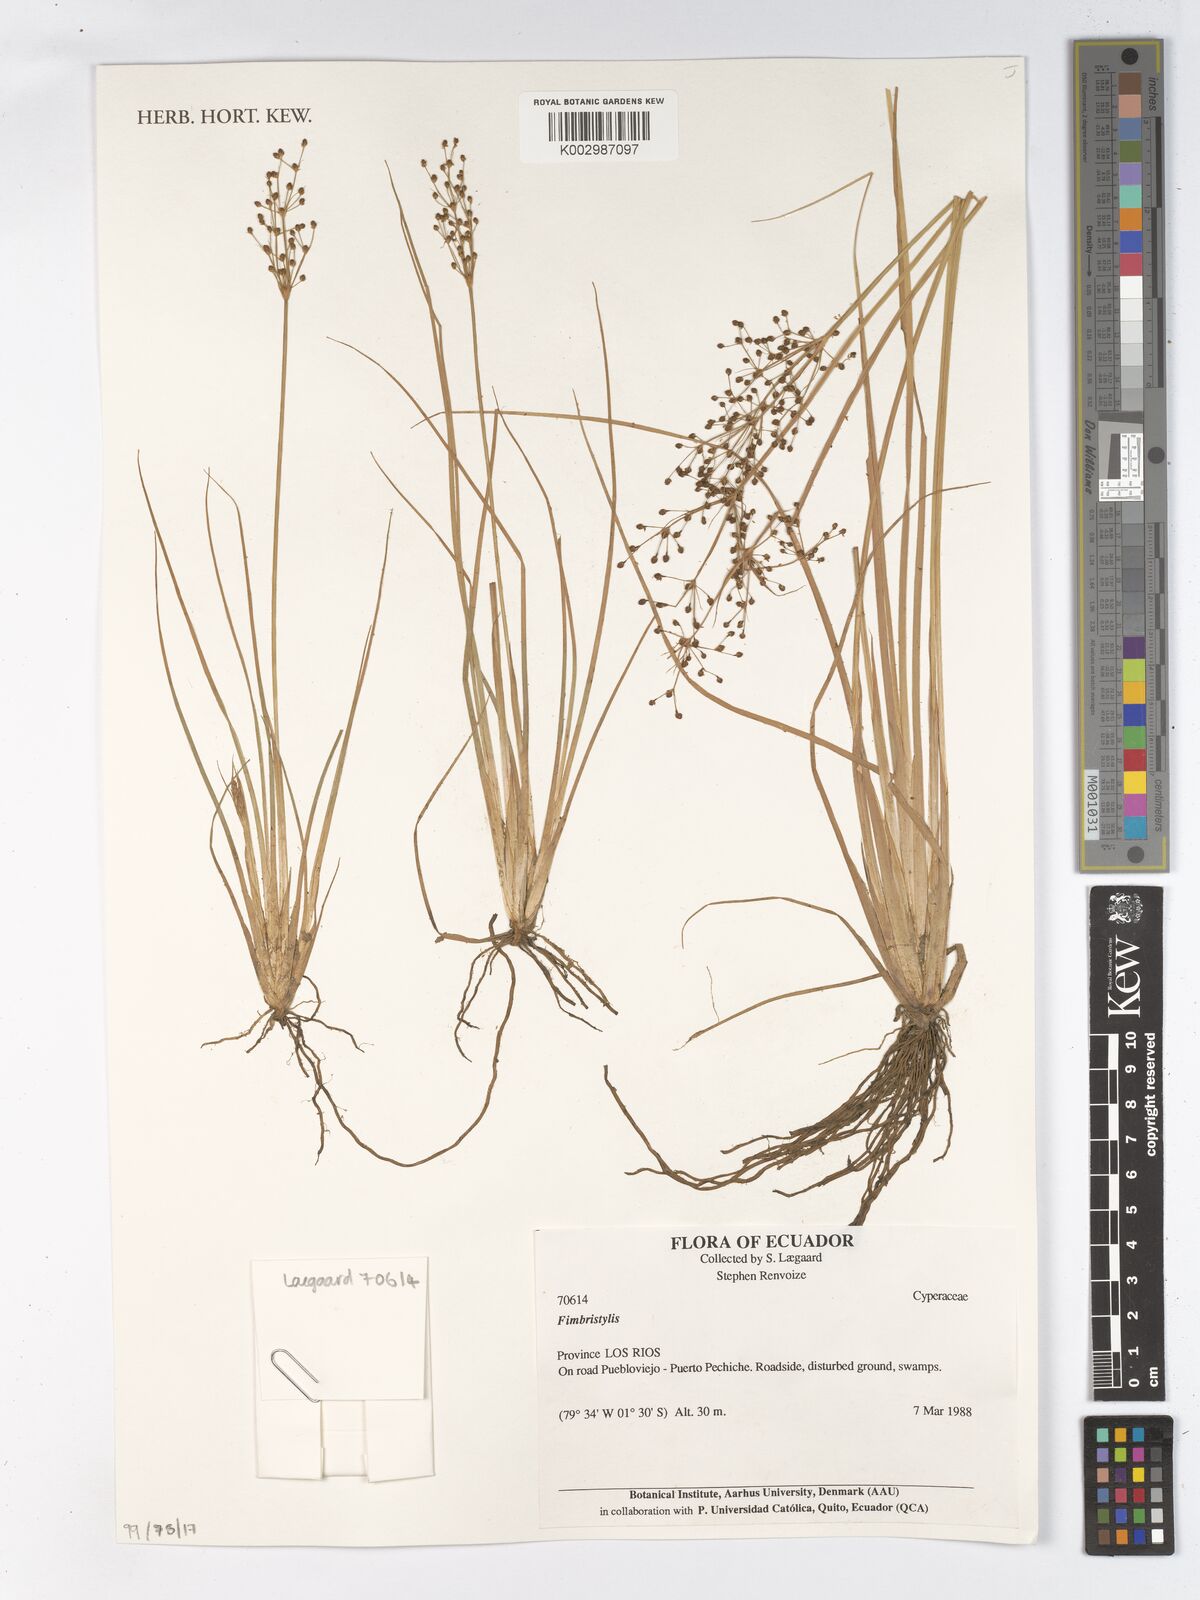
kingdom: Plantae
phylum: Tracheophyta
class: Liliopsida
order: Poales
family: Cyperaceae
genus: Fimbristylis
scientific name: Fimbristylis
